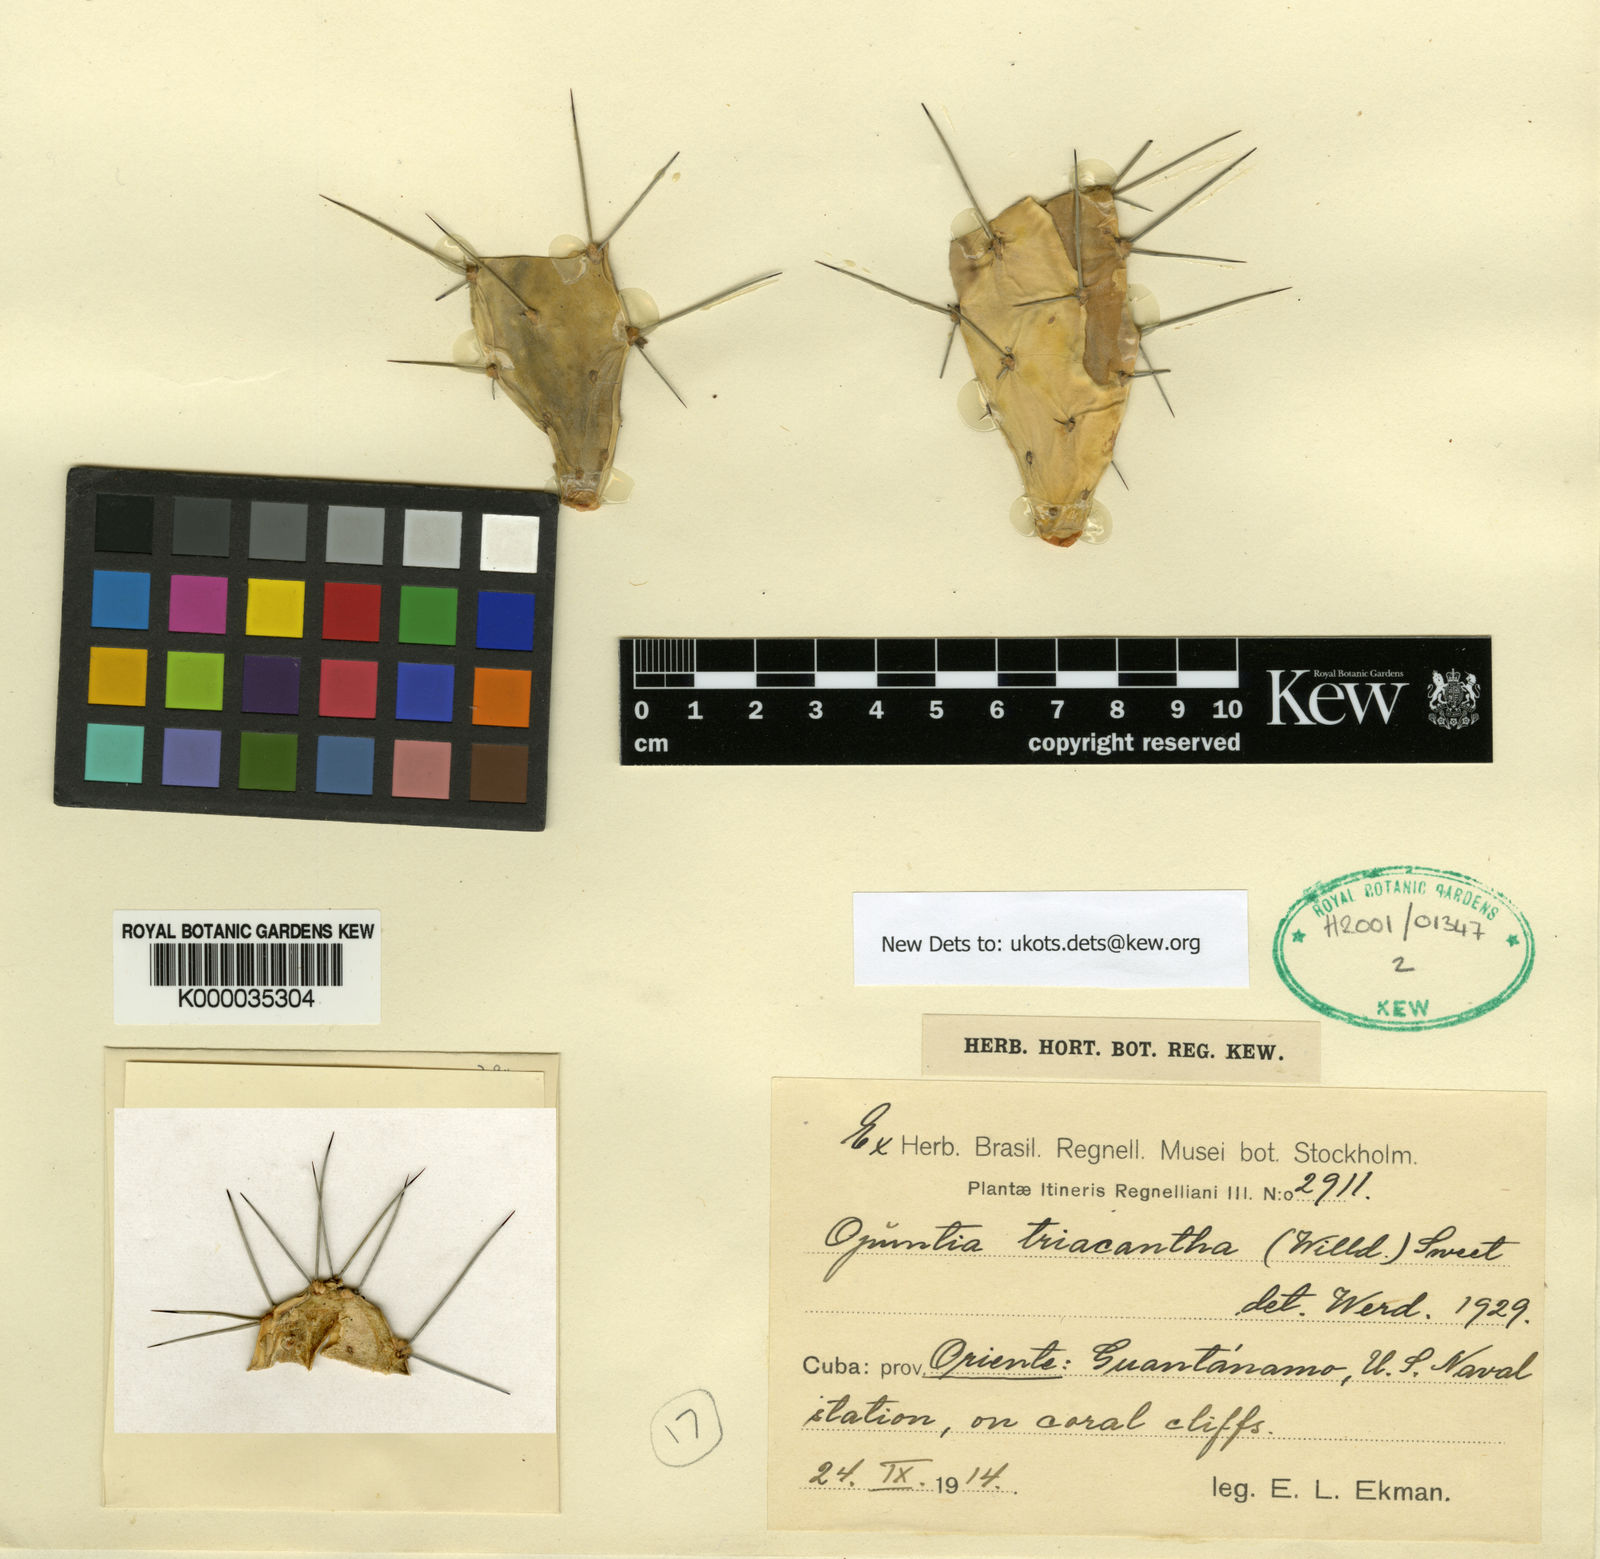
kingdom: Plantae
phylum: Tracheophyta
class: Magnoliopsida
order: Caryophyllales
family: Cactaceae
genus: Opuntia
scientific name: Opuntia
